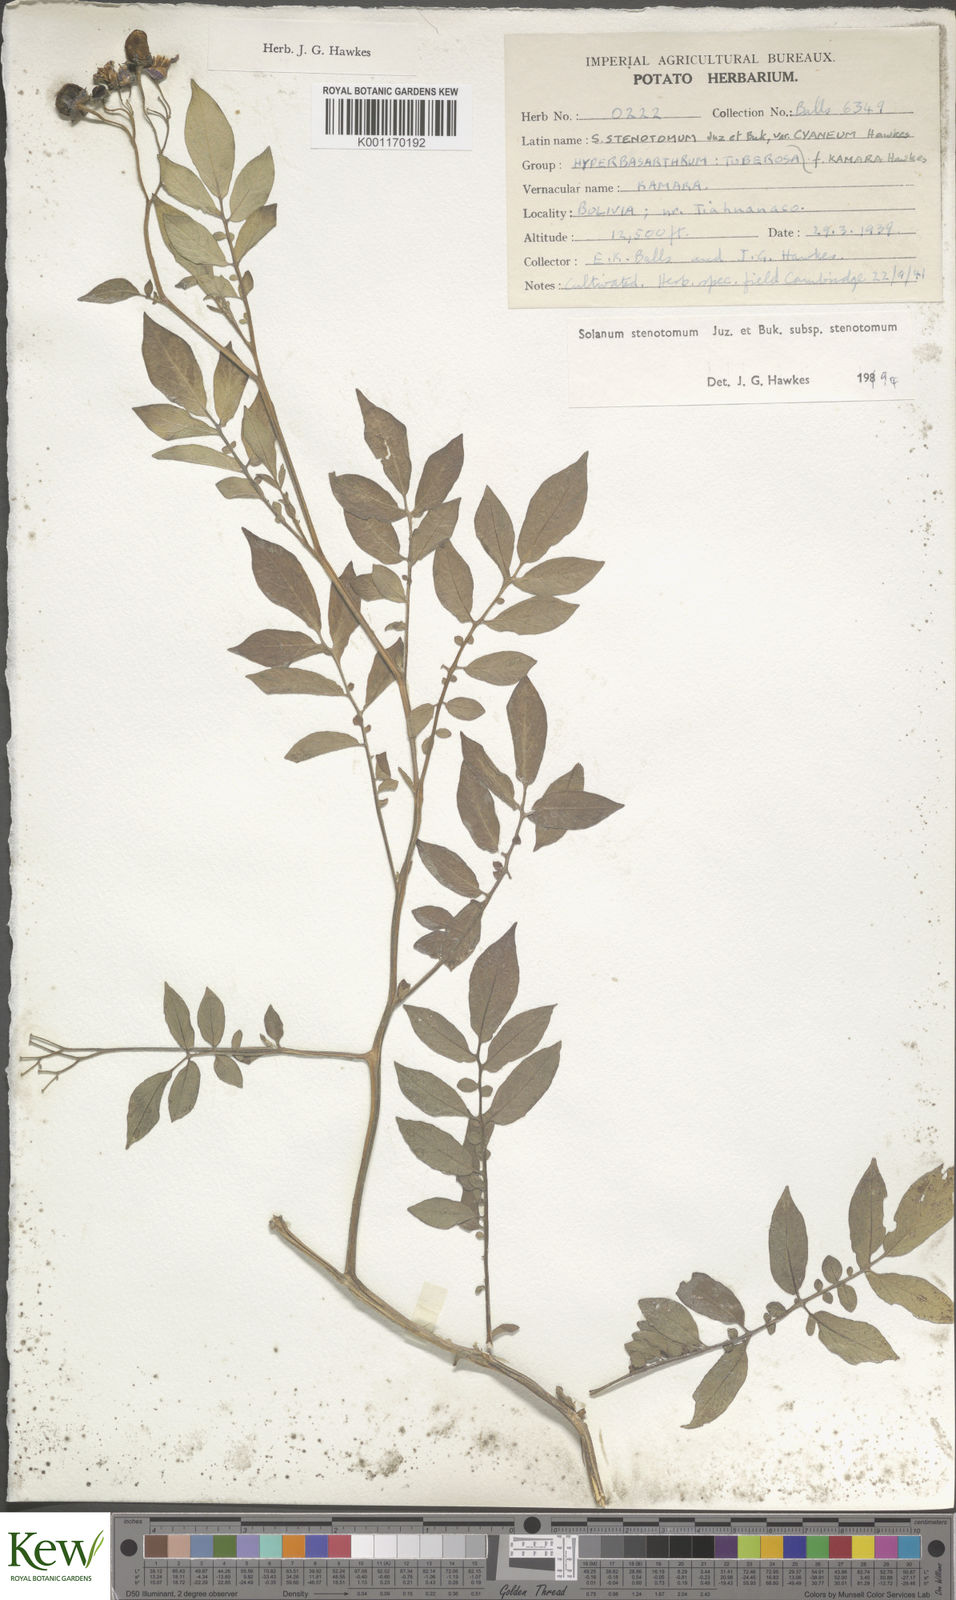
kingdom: Plantae
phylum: Tracheophyta
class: Magnoliopsida
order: Solanales
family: Solanaceae
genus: Solanum
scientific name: Solanum tuberosum
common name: Potato
